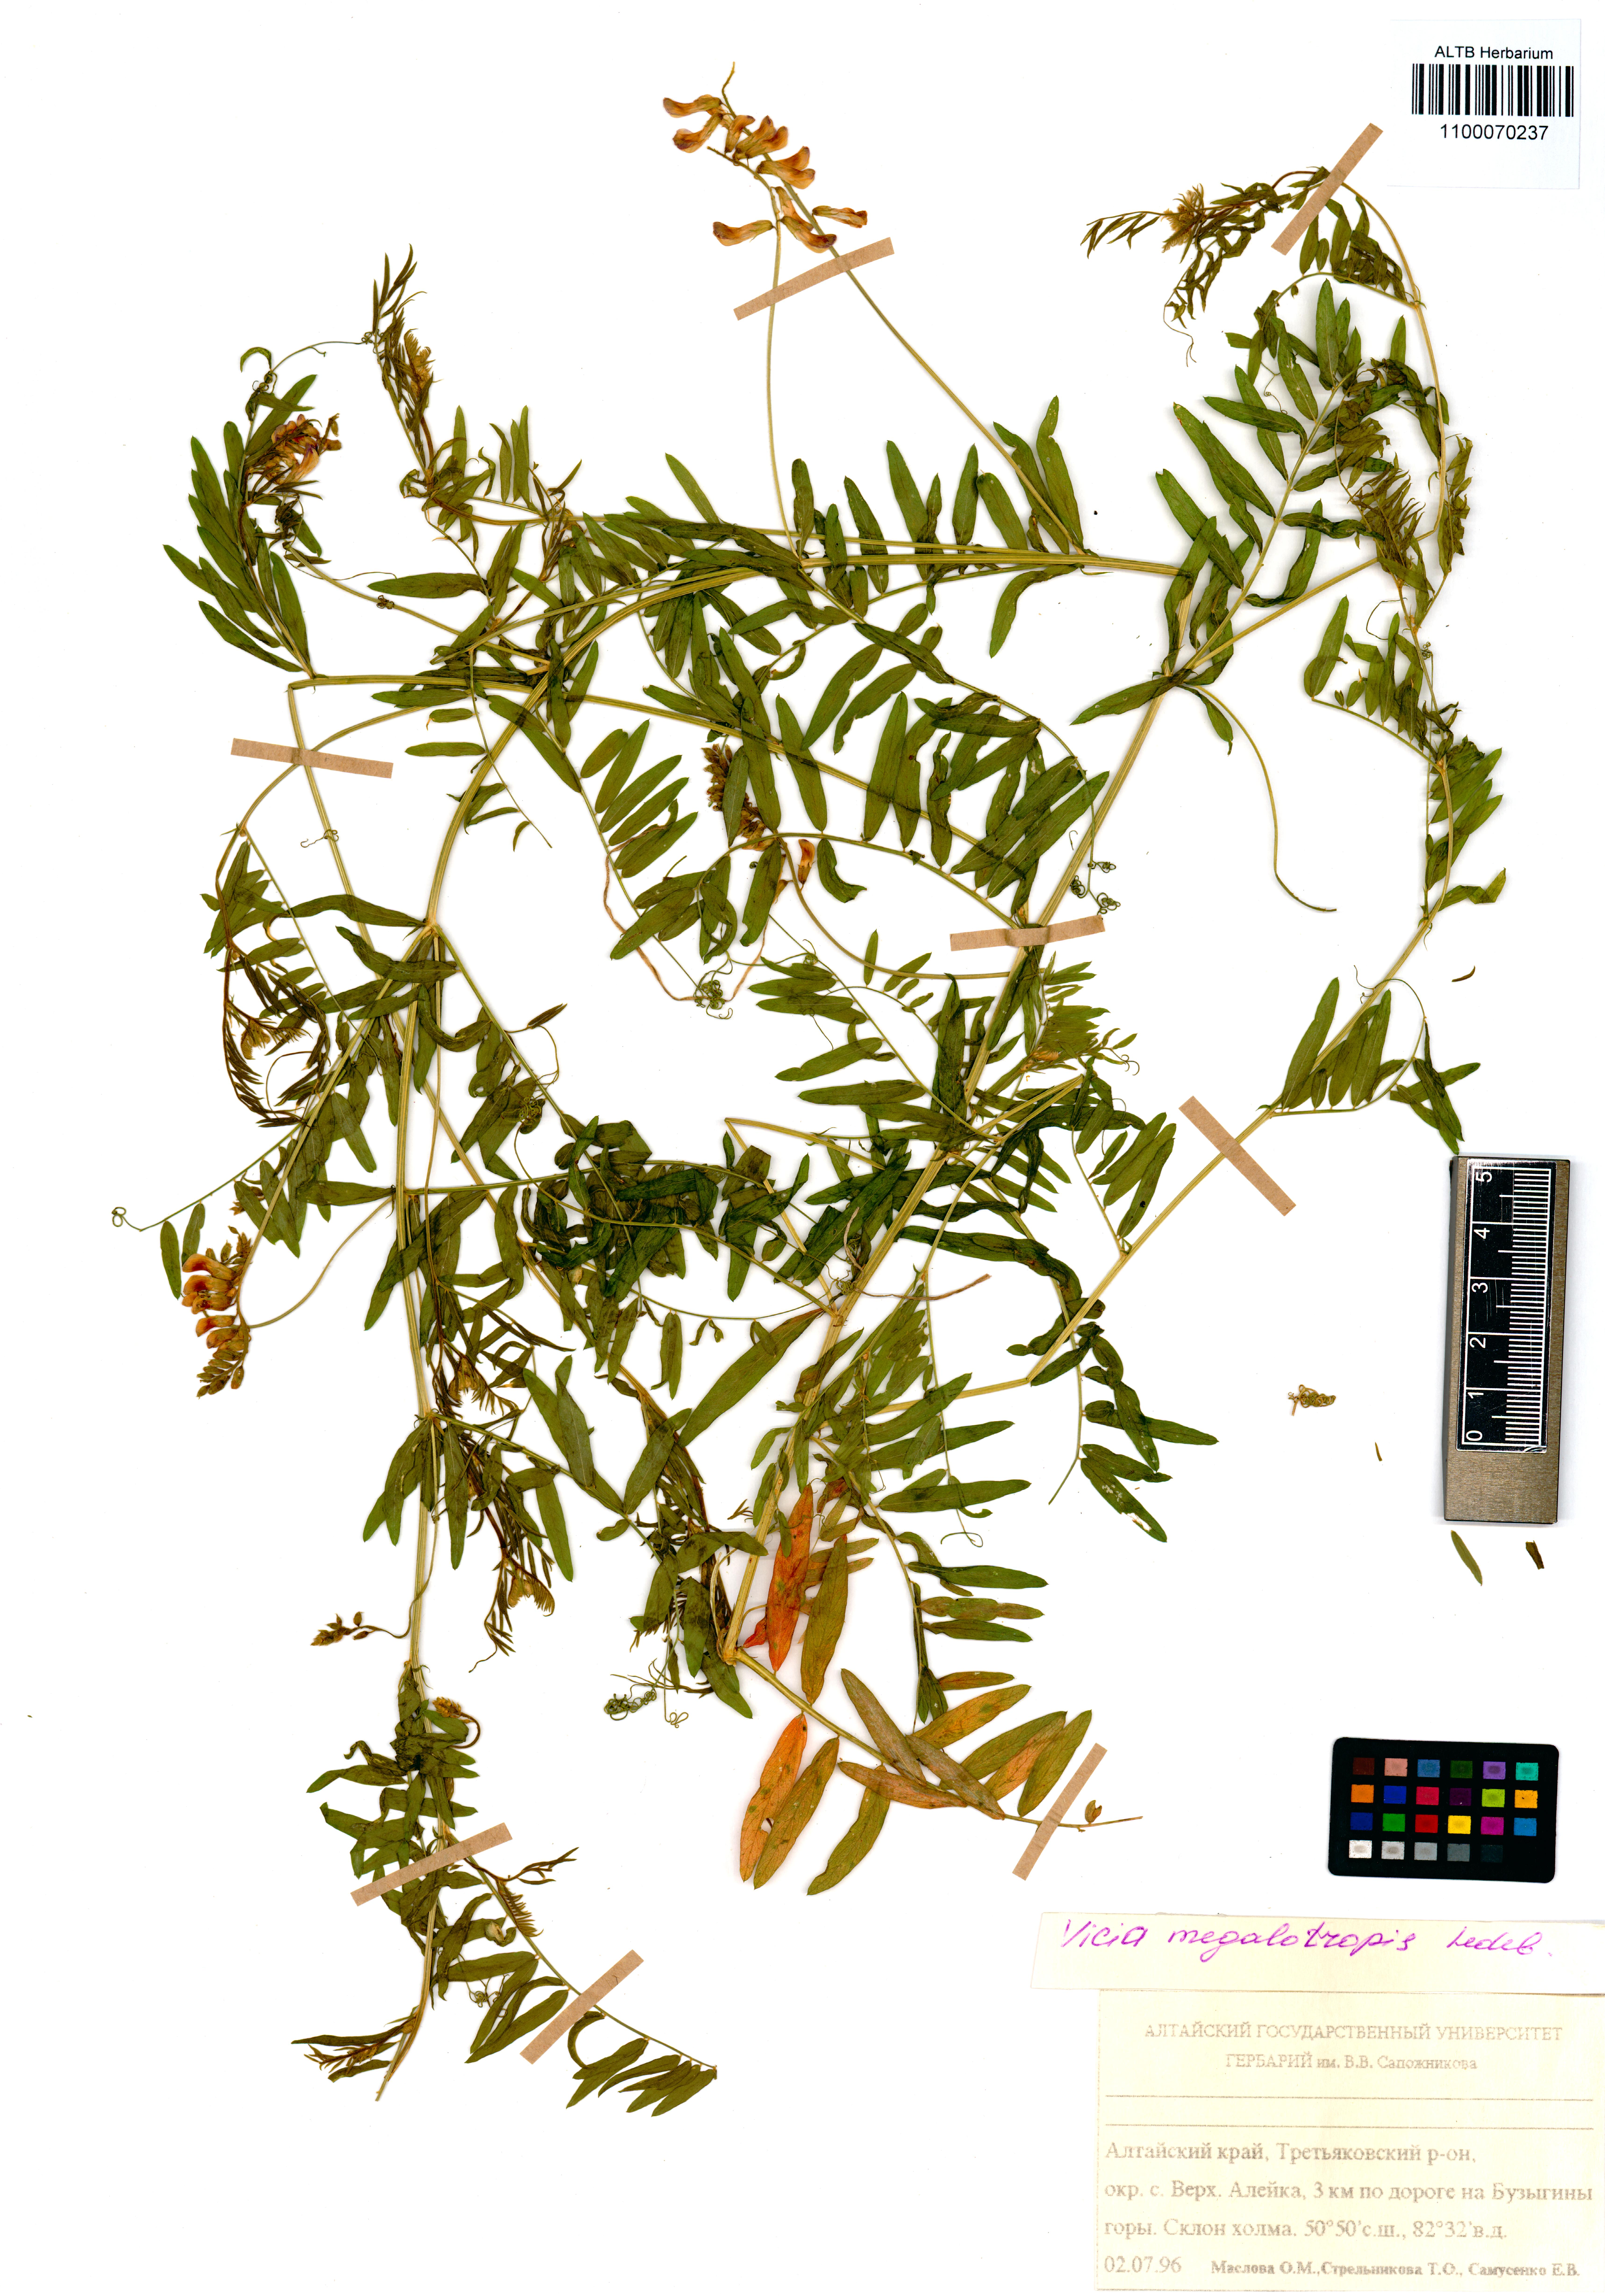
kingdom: Plantae
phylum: Tracheophyta
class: Magnoliopsida
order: Fabales
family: Fabaceae
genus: Vicia
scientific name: Vicia megalotropis
